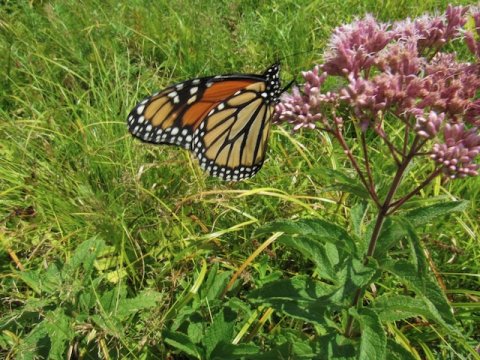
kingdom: Animalia
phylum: Arthropoda
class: Insecta
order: Lepidoptera
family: Nymphalidae
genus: Danaus
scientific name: Danaus plexippus
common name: Monarch
